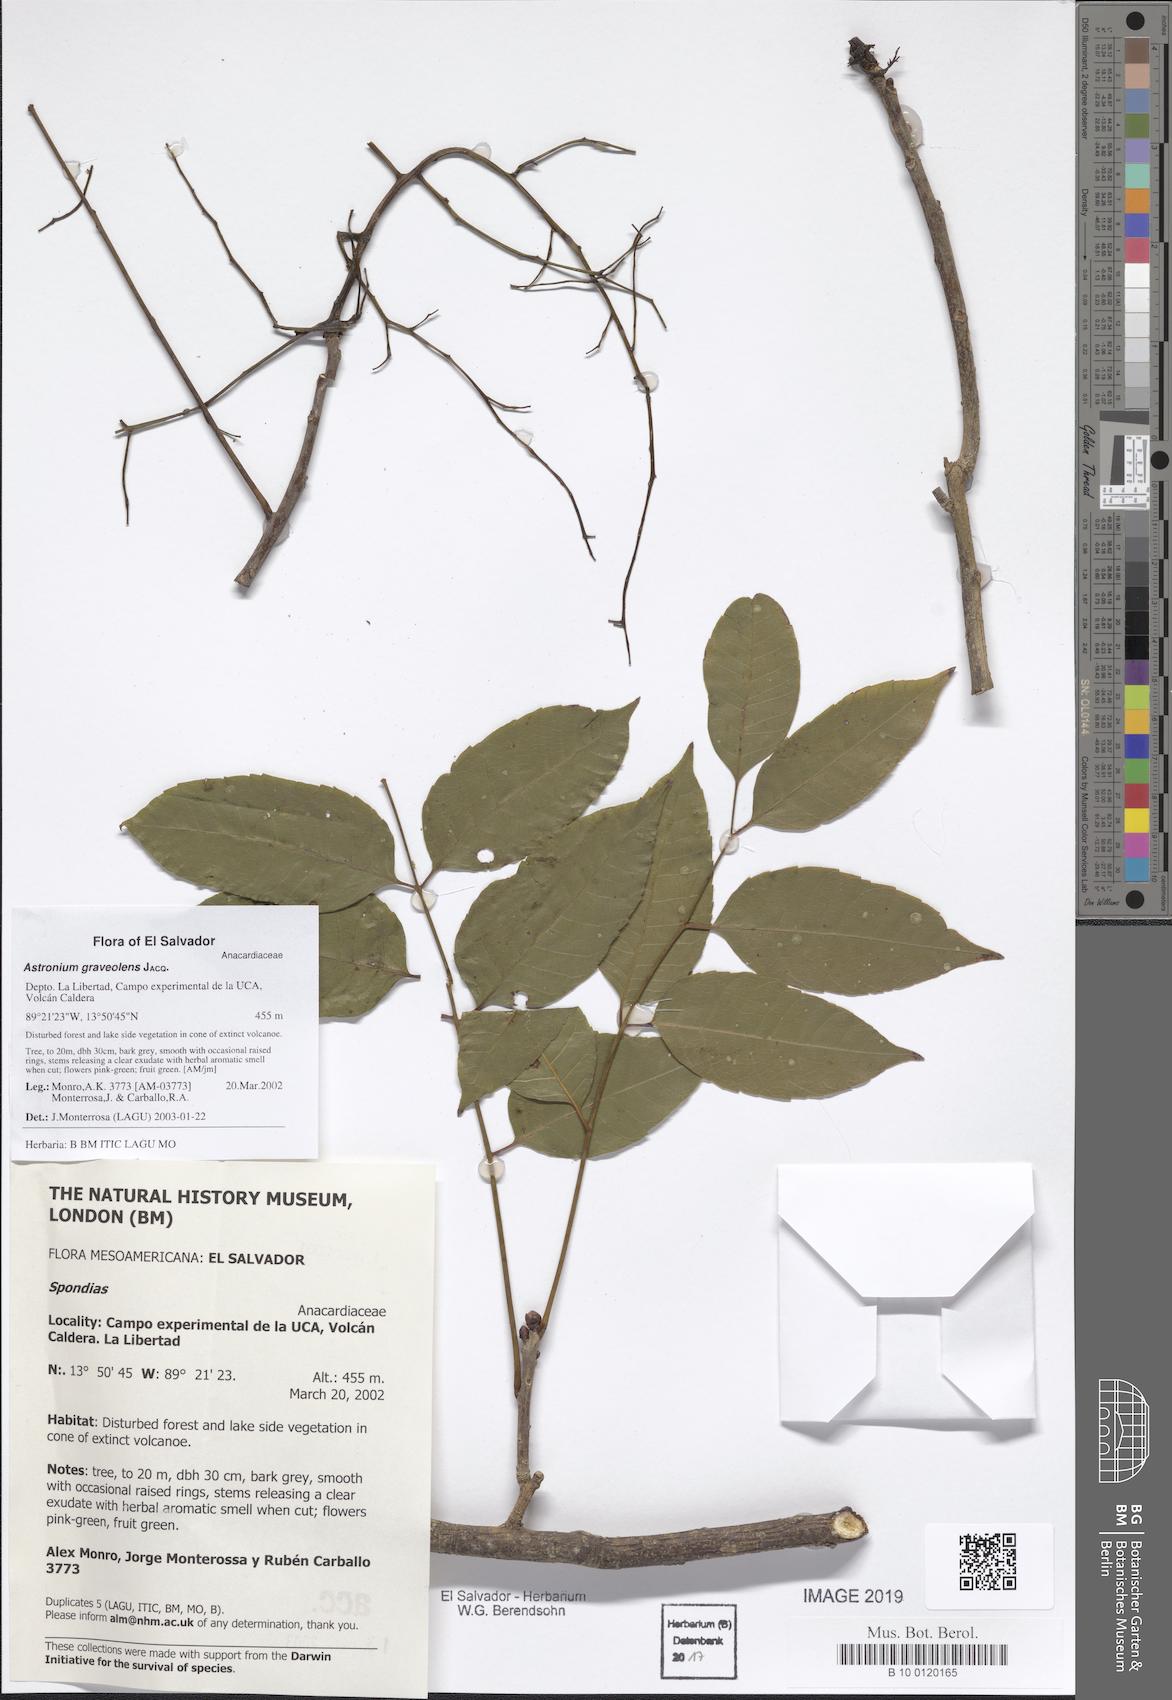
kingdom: Plantae
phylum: Tracheophyta
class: Magnoliopsida
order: Sapindales
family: Anacardiaceae
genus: Astronium
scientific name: Astronium graveolens
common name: Glassywood
